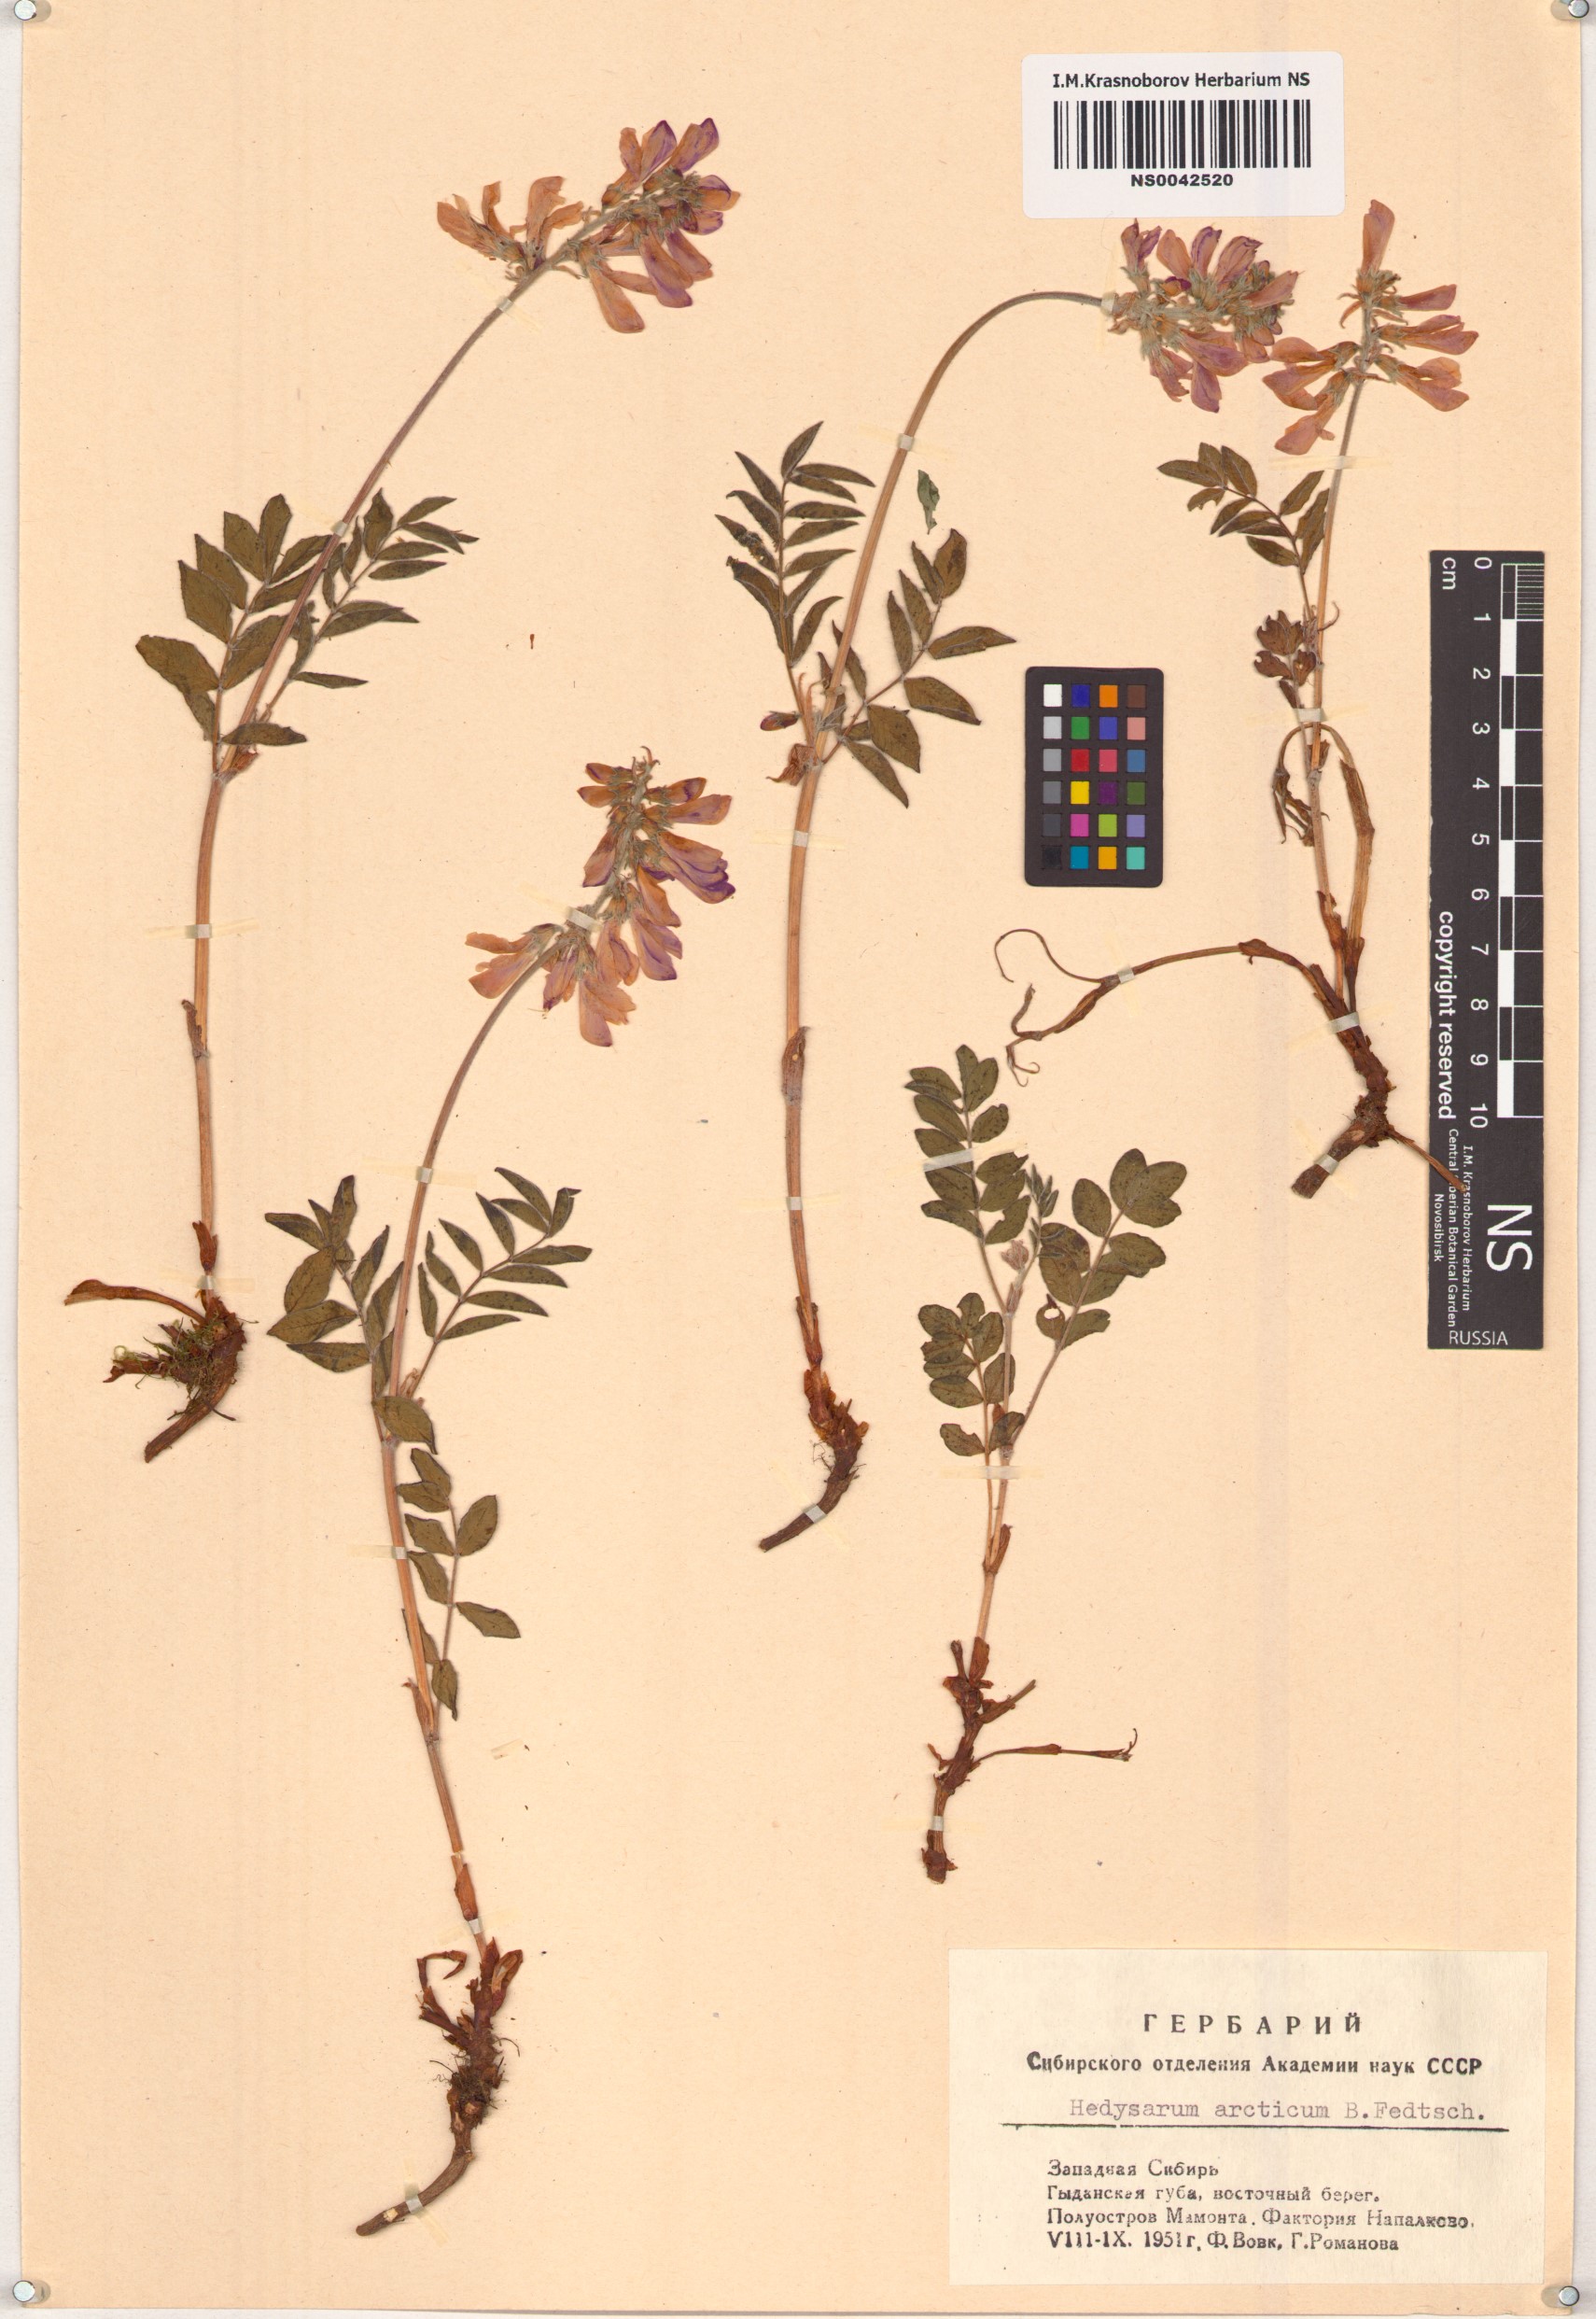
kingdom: Plantae
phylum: Tracheophyta
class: Magnoliopsida
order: Fabales
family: Fabaceae
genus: Hedysarum
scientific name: Hedysarum hedysaroides
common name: Alpine french-honeysuckle
